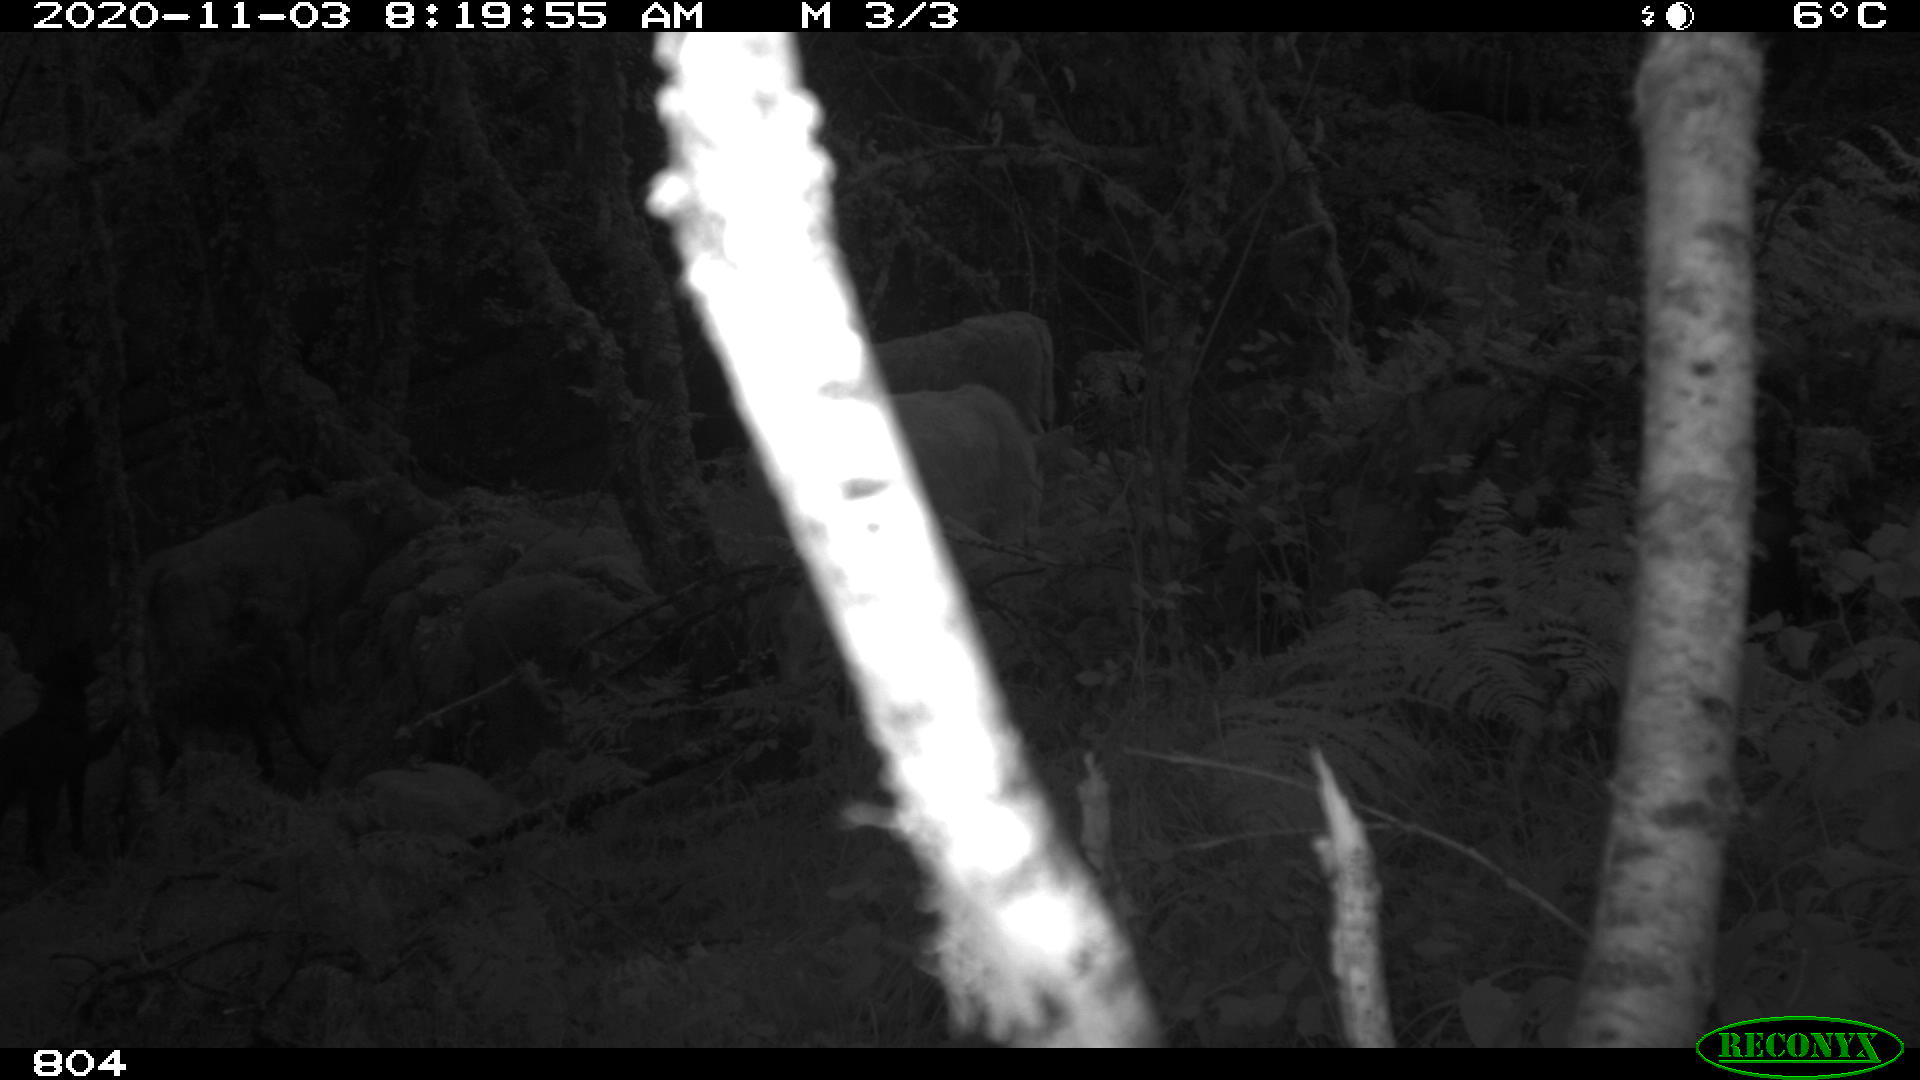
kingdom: Animalia
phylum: Chordata
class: Mammalia
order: Artiodactyla
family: Bovidae
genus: Bos
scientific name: Bos taurus
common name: Domesticated cattle
